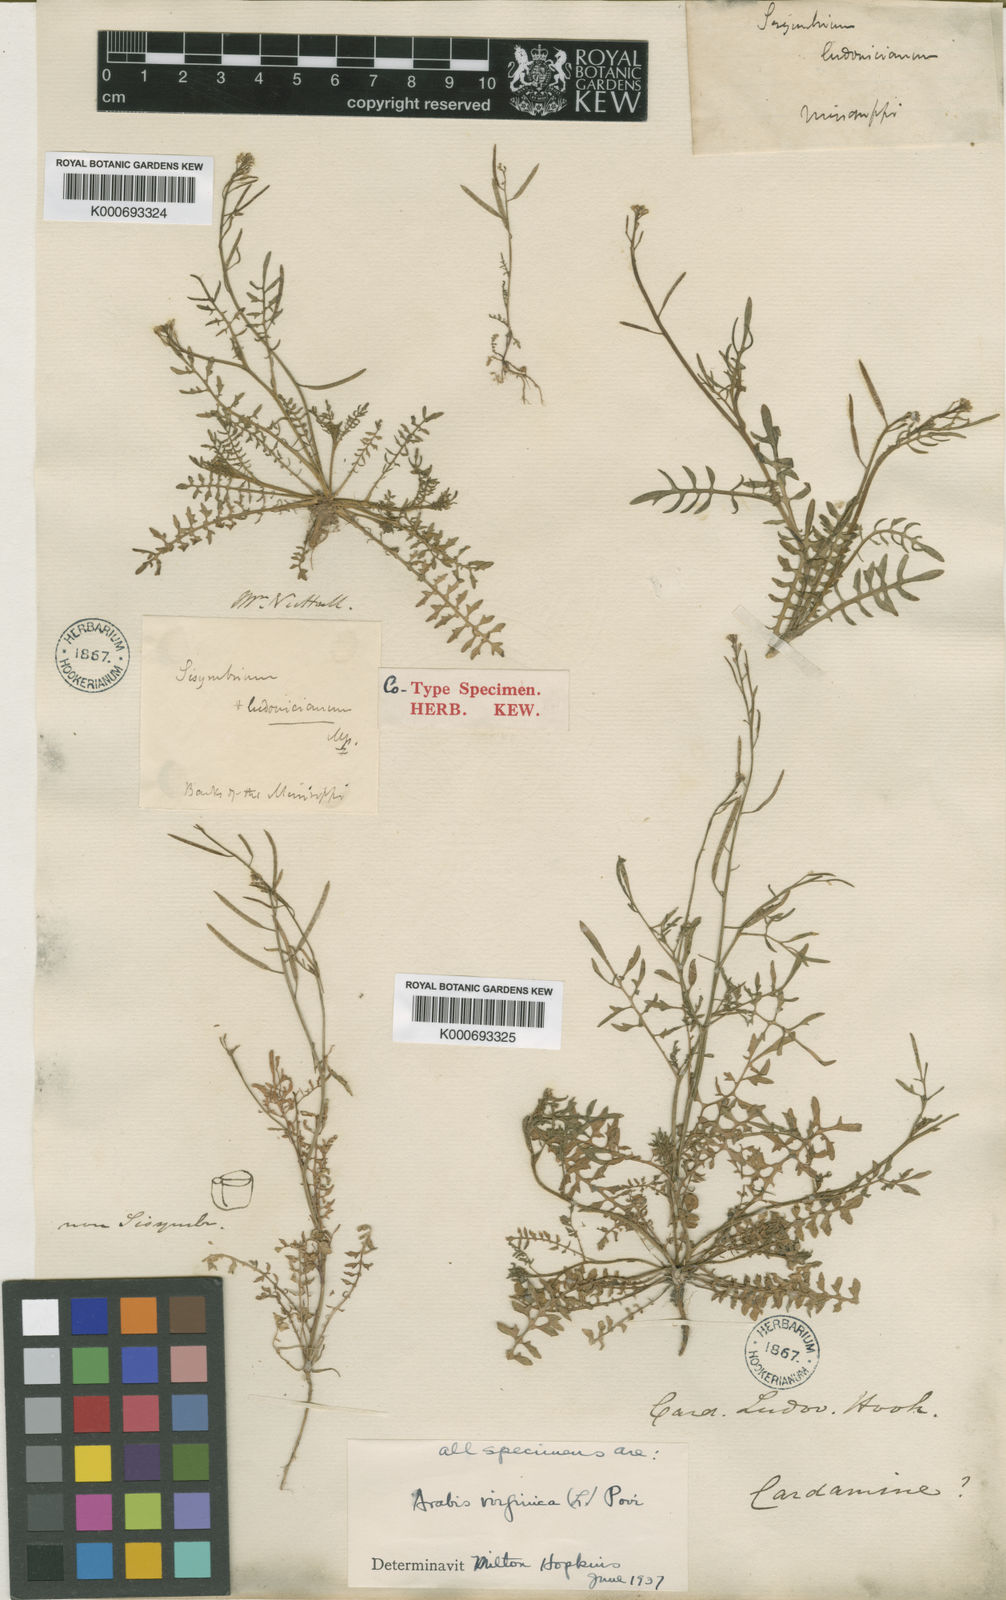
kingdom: Plantae
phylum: Tracheophyta
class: Magnoliopsida
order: Brassicales
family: Brassicaceae
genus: Planodes
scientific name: Planodes virginicum
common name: Virginia cress
